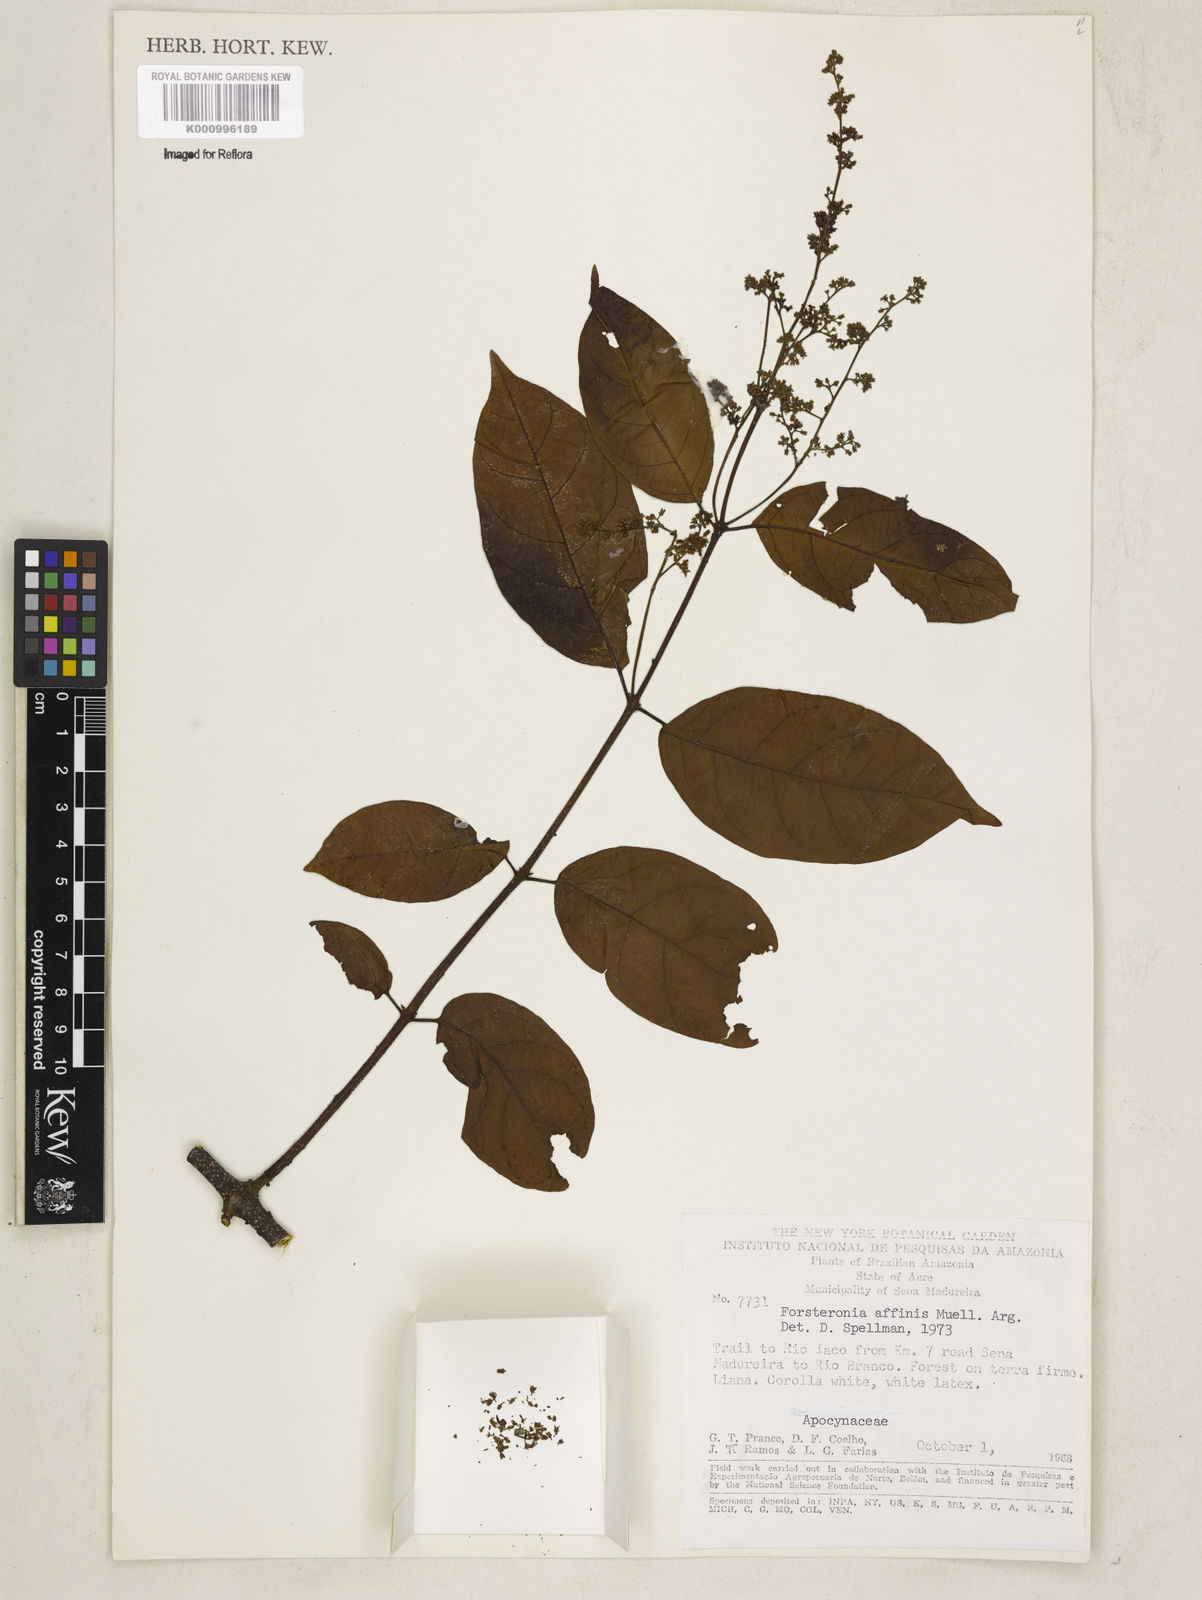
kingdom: Plantae
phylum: Tracheophyta
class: Magnoliopsida
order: Gentianales
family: Apocynaceae
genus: Forsteronia
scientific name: Forsteronia
